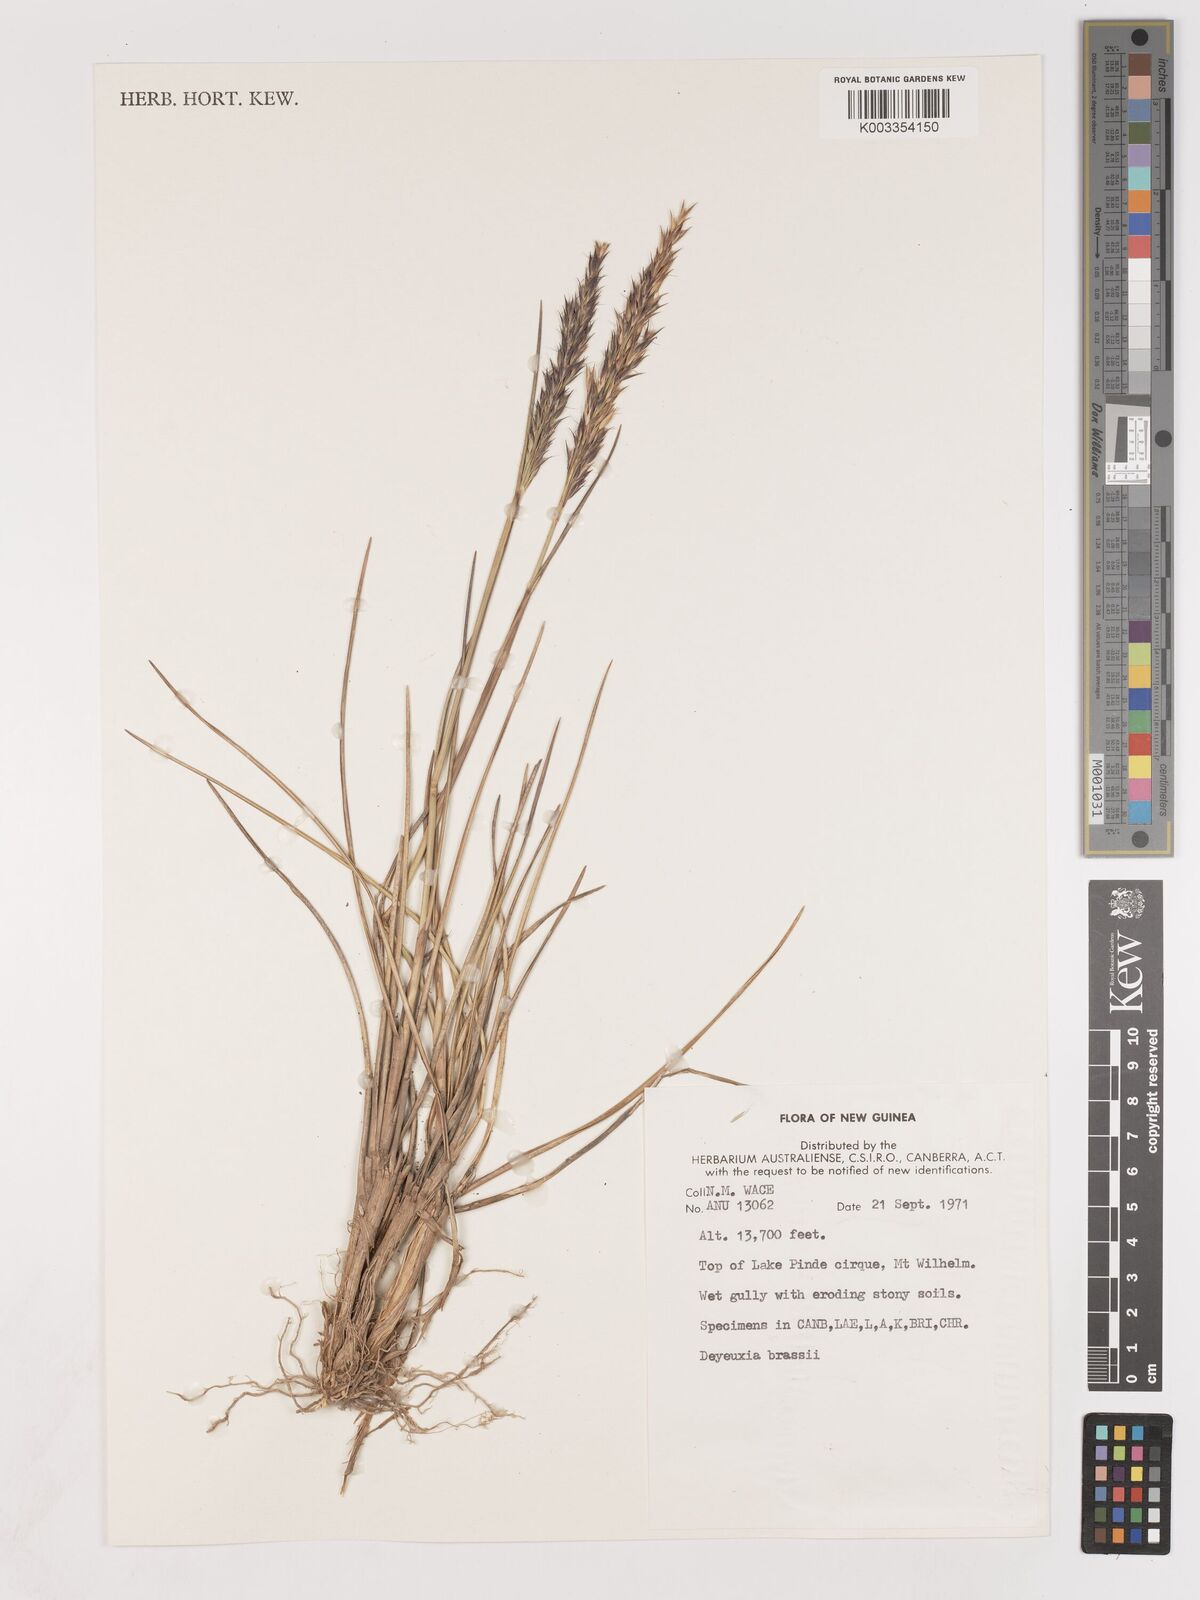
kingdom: Plantae
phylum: Tracheophyta
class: Liliopsida
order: Poales
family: Poaceae
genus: Calamagrostis
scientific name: Calamagrostis brassii
